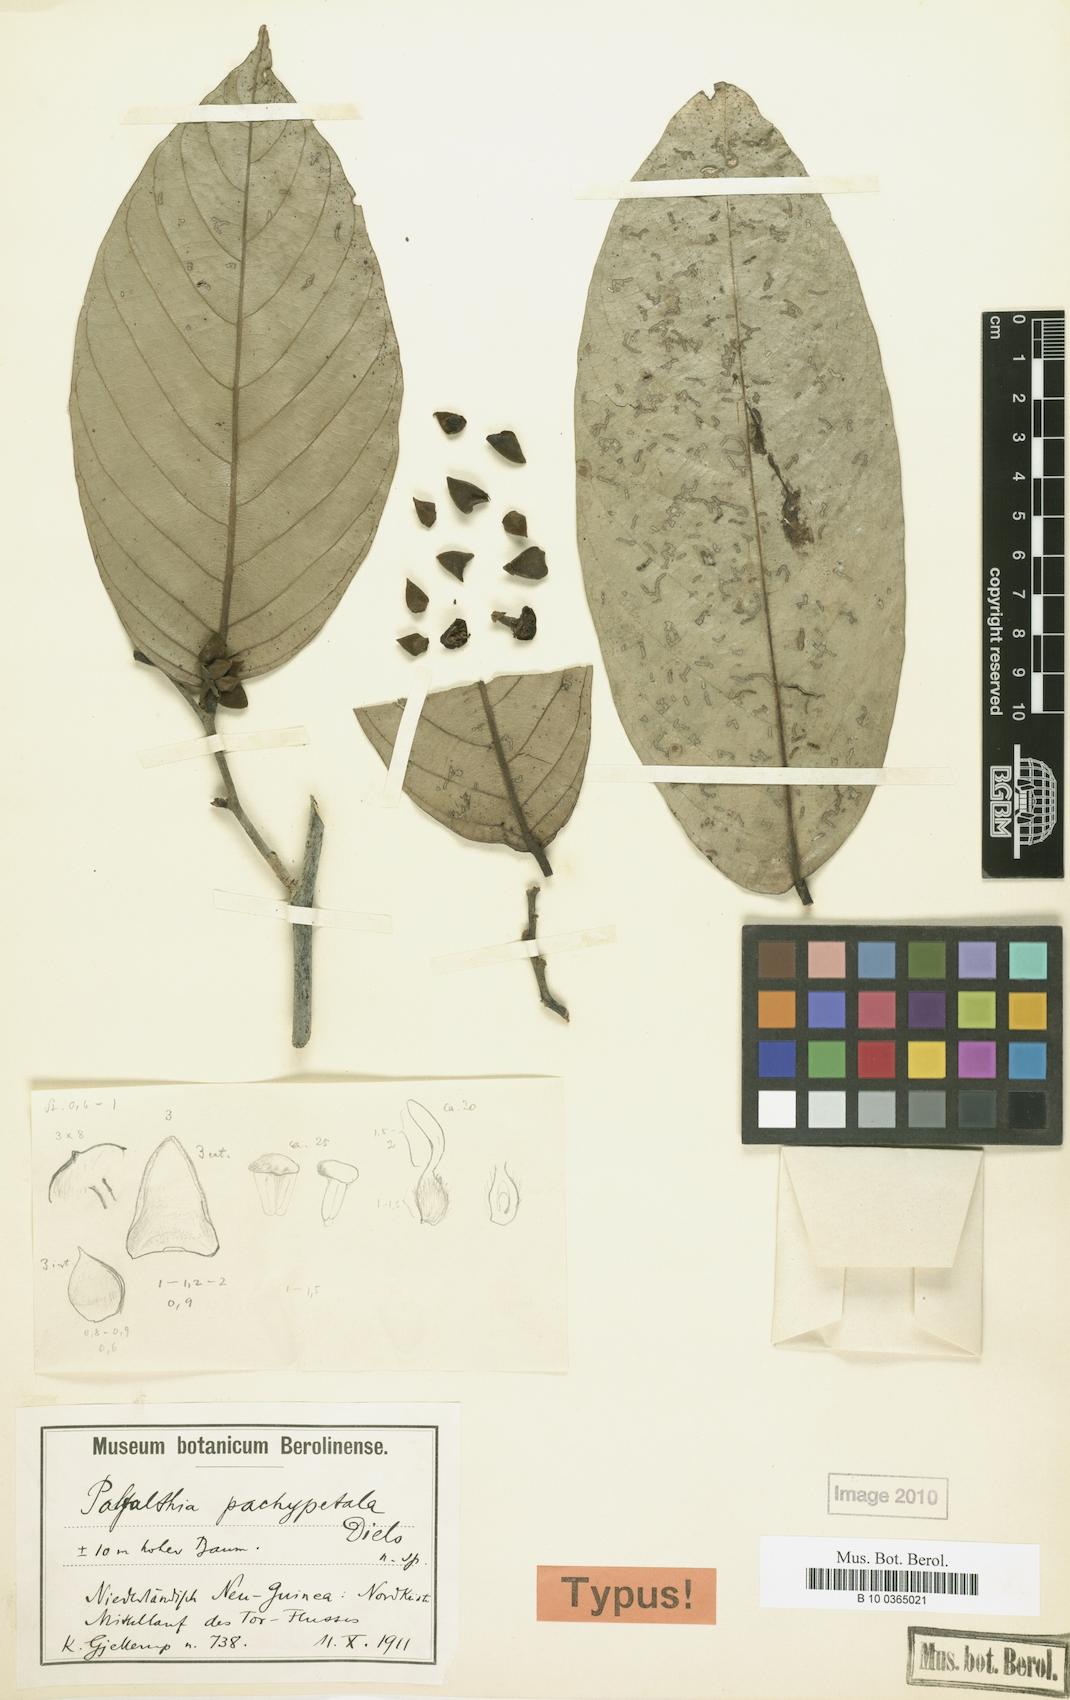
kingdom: Plantae
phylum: Tracheophyta
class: Magnoliopsida
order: Magnoliales
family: Annonaceae
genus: Polyalthia
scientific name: Polyalthia
